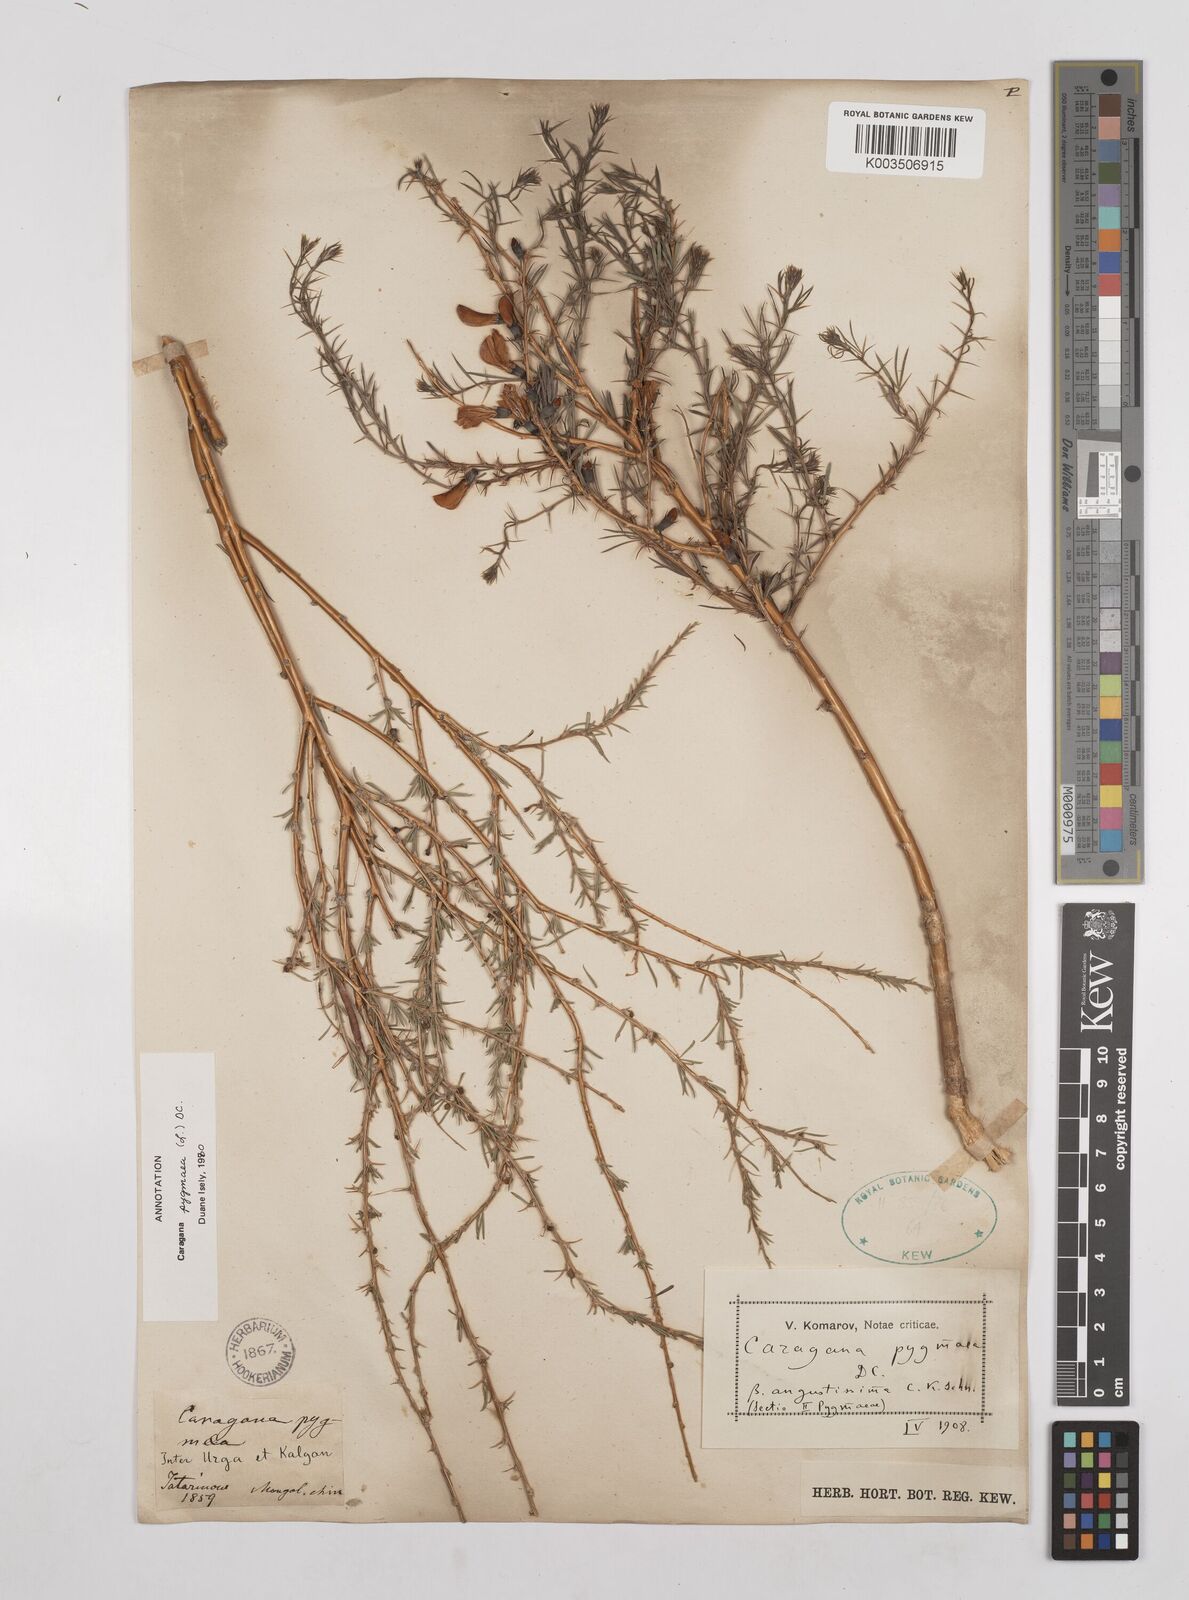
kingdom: Plantae
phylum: Tracheophyta
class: Magnoliopsida
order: Fabales
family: Fabaceae
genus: Caragana
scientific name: Caragana pygmaea
